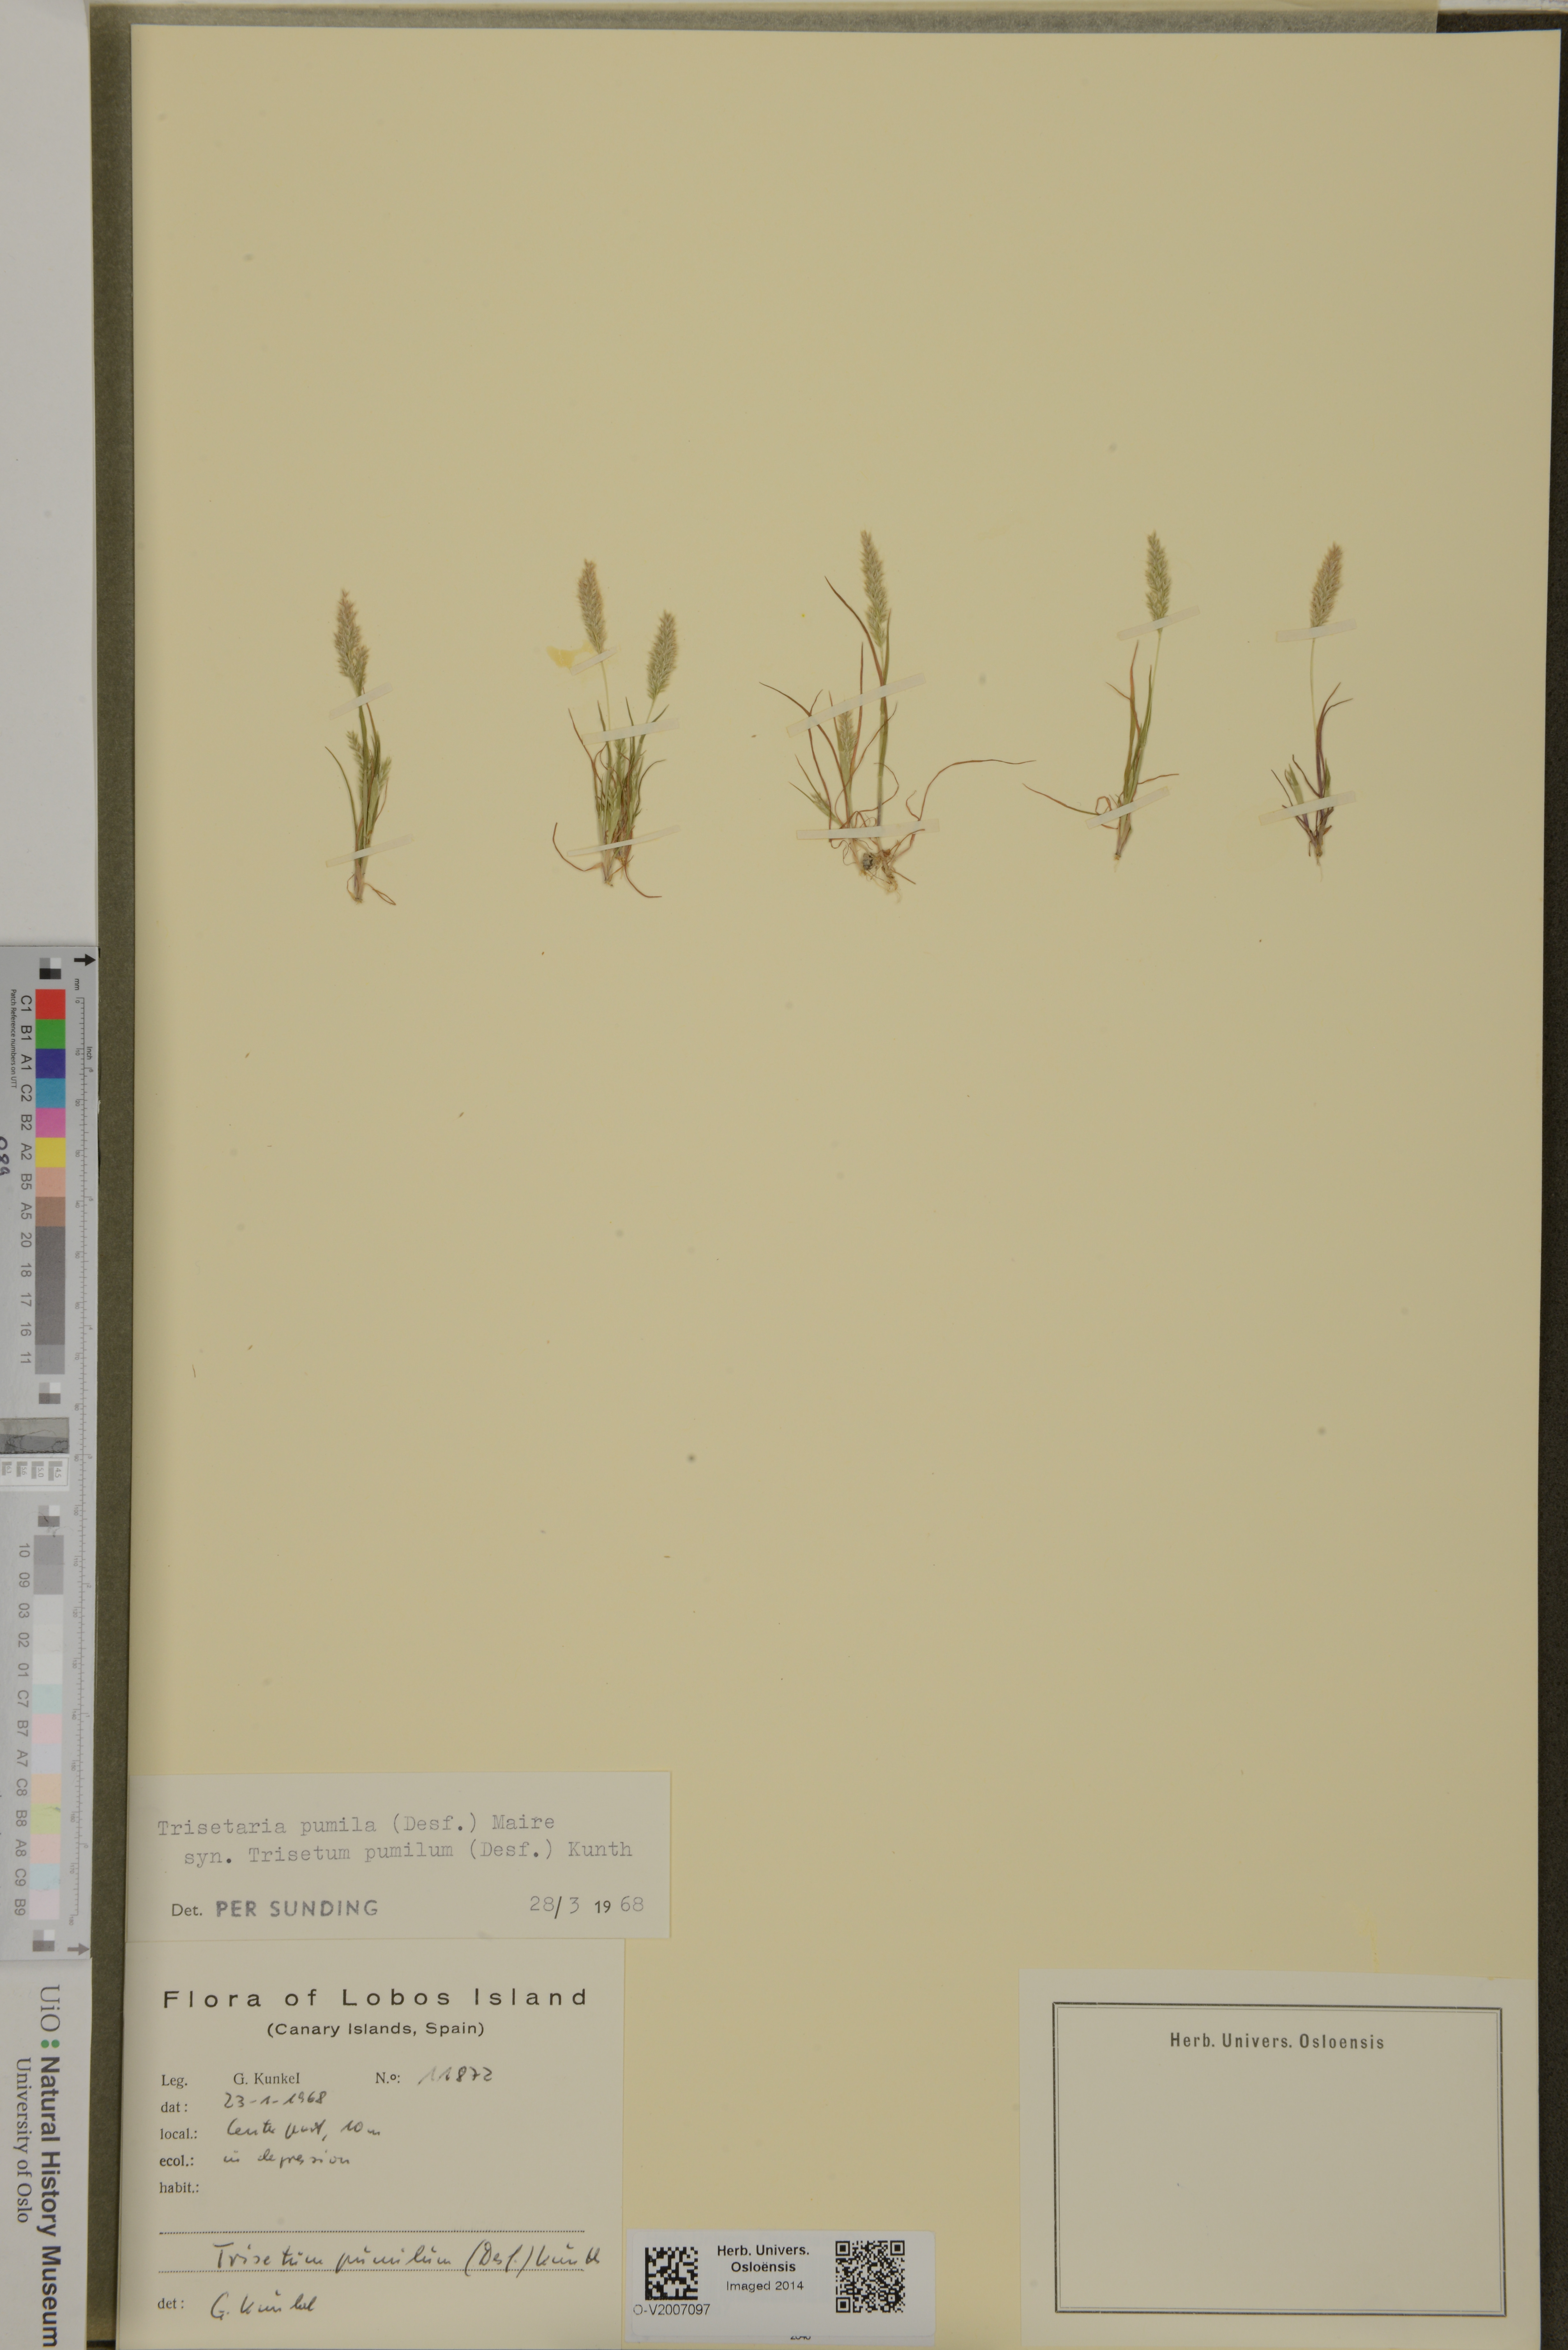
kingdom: Plantae
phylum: Tracheophyta
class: Liliopsida
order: Poales
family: Poaceae
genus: Rostraria
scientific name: Rostraria pumila
